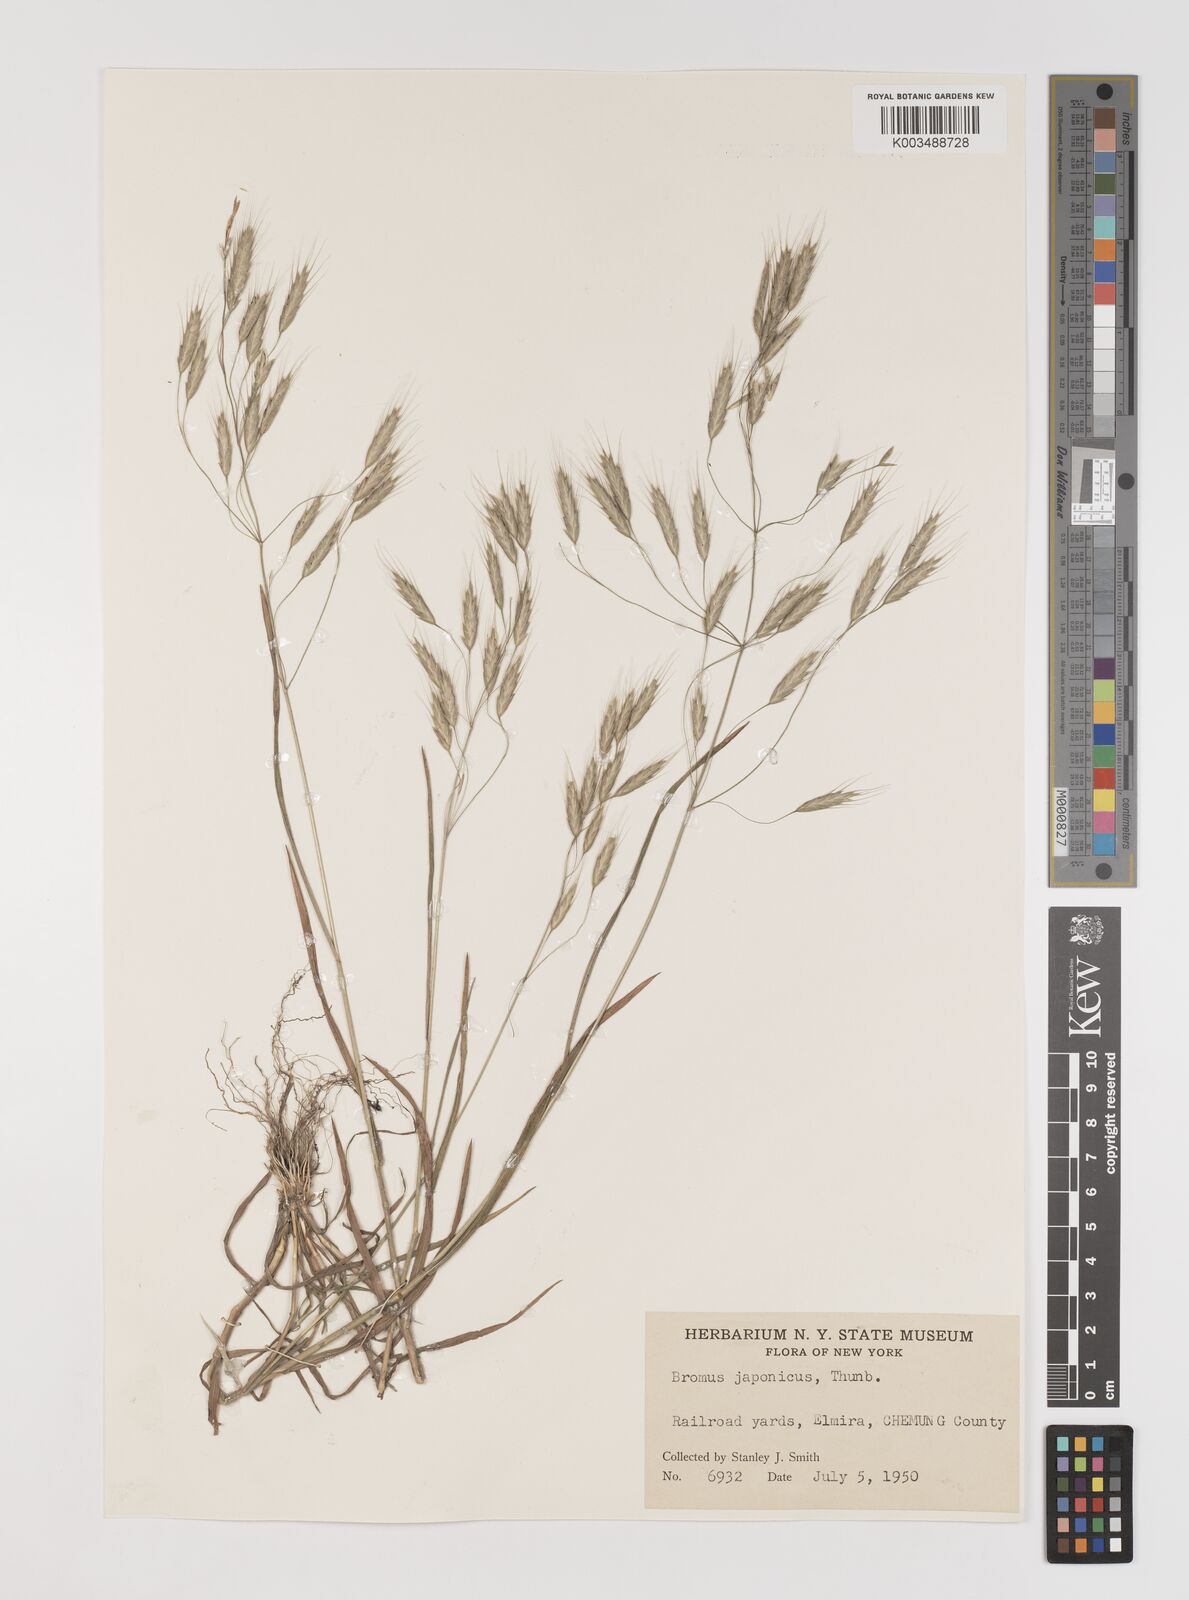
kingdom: Plantae
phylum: Tracheophyta
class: Liliopsida
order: Poales
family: Poaceae
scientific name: Poaceae
